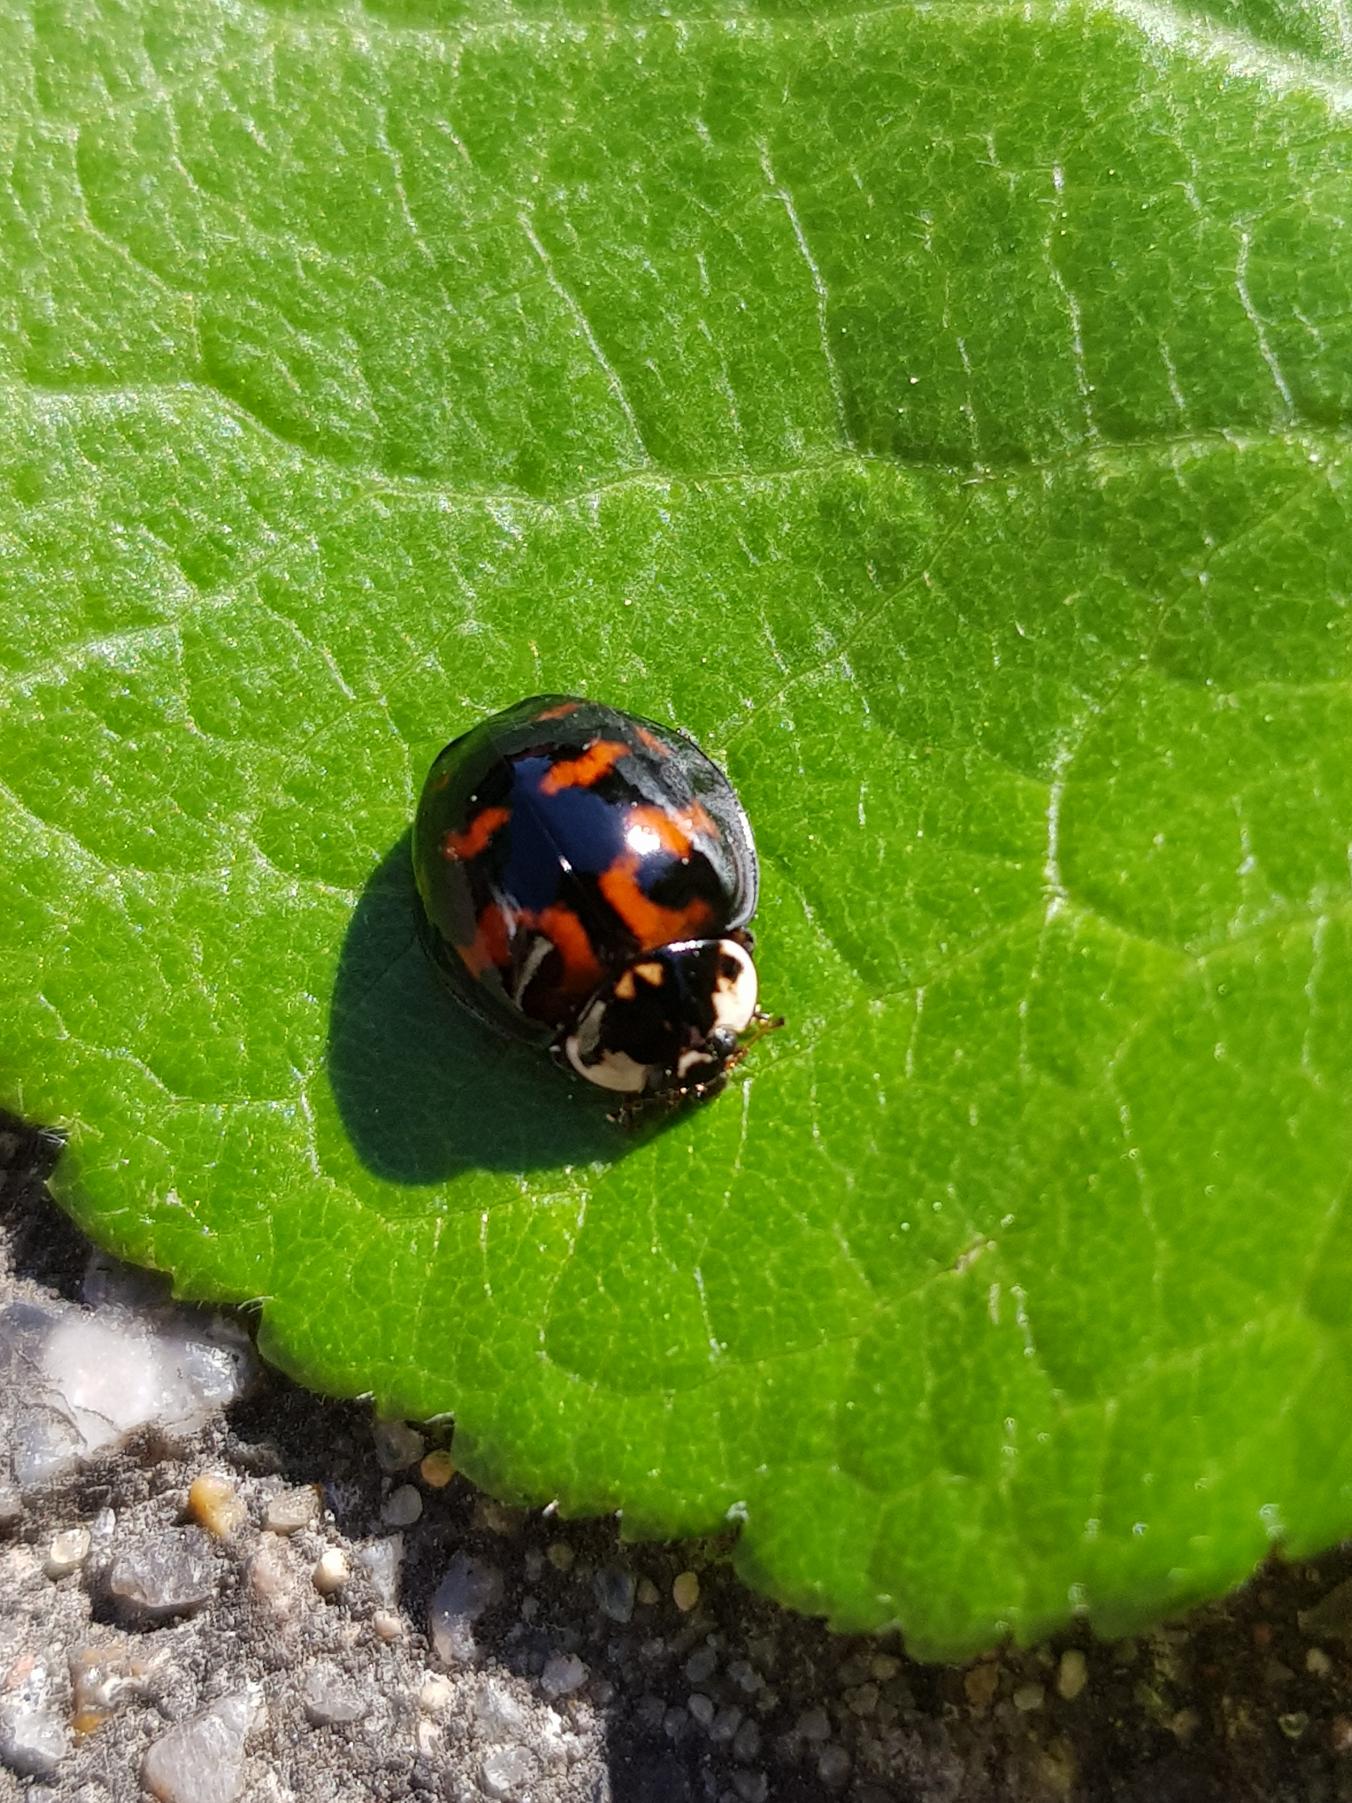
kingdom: Animalia
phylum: Arthropoda
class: Insecta
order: Coleoptera
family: Coccinellidae
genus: Harmonia
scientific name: Harmonia axyridis
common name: Harlekinmariehøne
